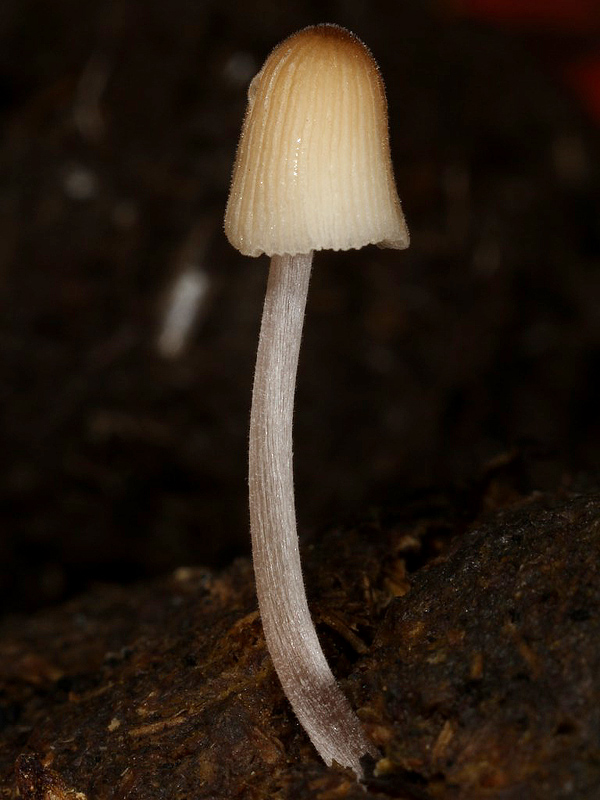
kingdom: Fungi
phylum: Basidiomycota
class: Agaricomycetes
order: Agaricales
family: Psathyrellaceae
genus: Tulosesus
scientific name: Tulosesus sassii
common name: storsporet blækhat
